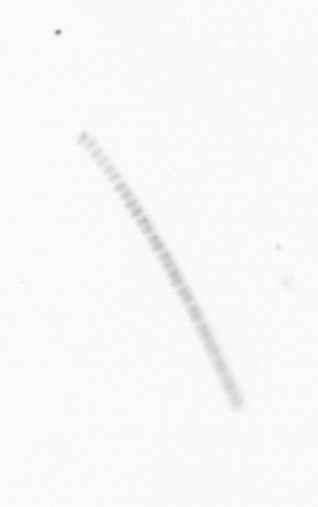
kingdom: Chromista
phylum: Ochrophyta
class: Bacillariophyceae
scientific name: Bacillariophyceae
